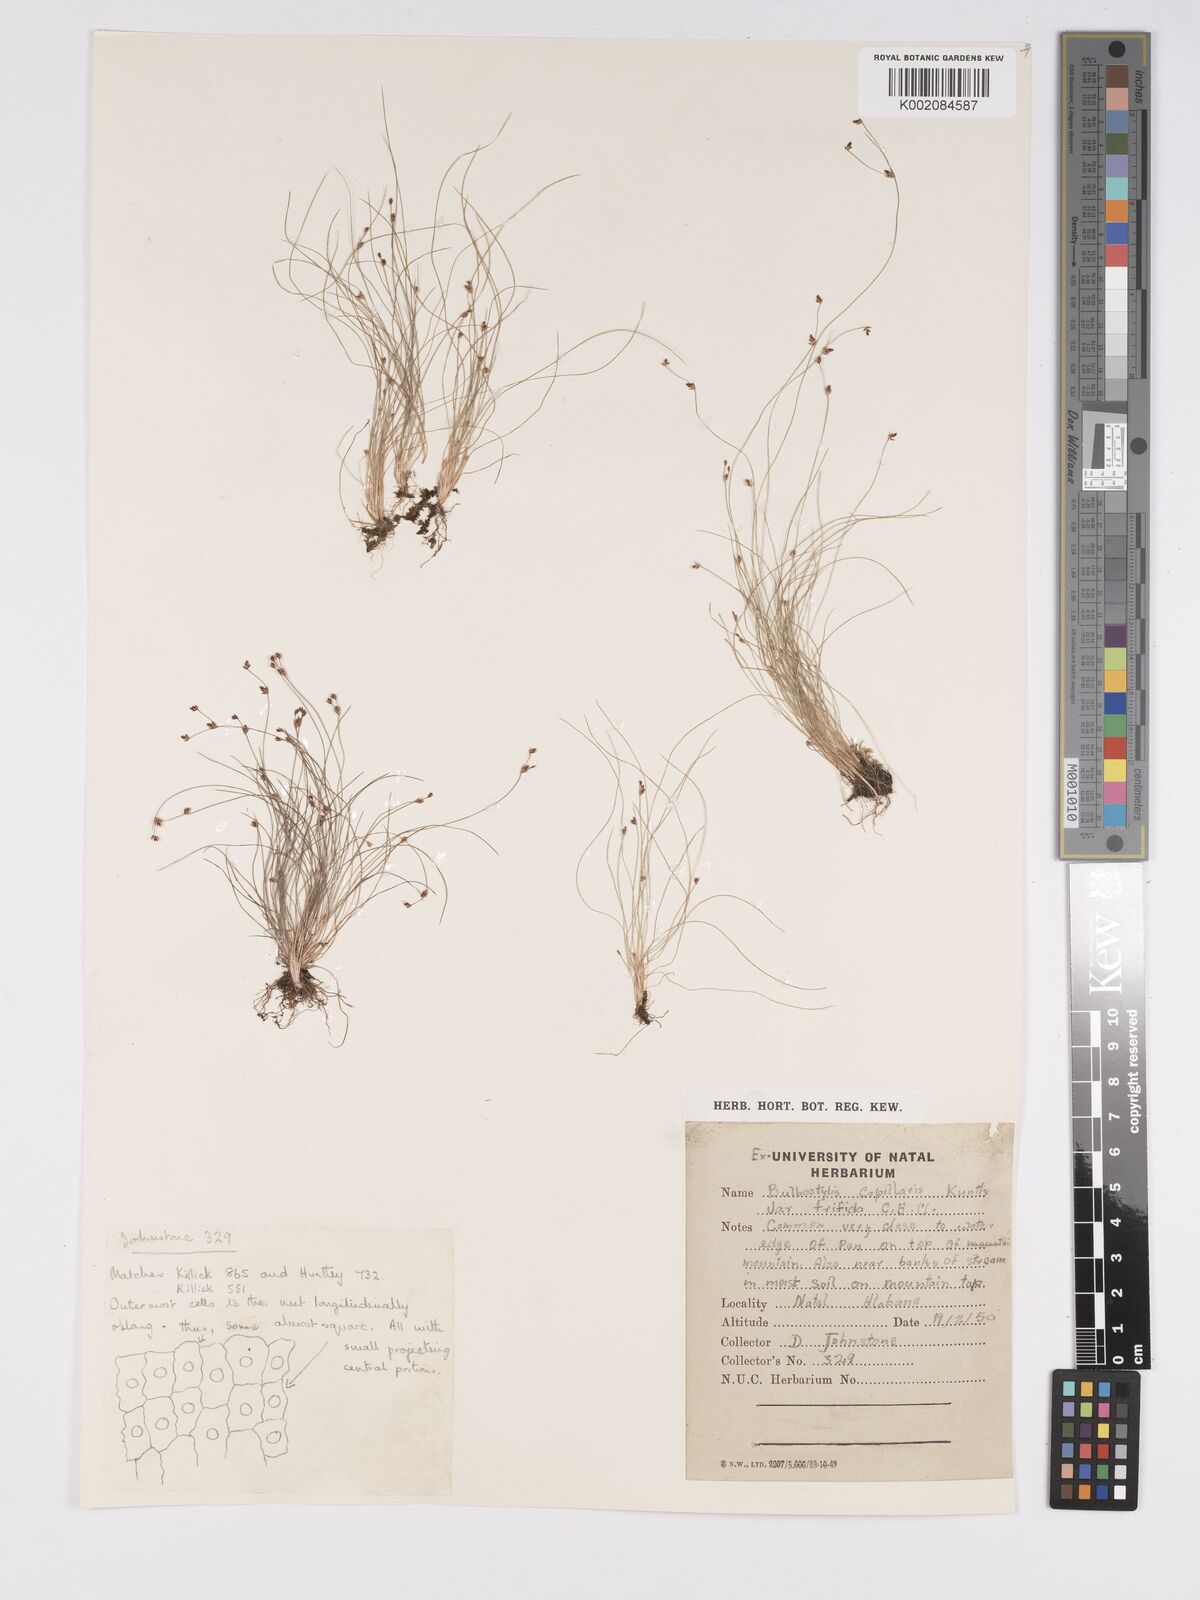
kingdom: Plantae
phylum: Tracheophyta
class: Liliopsida
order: Poales
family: Cyperaceae
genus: Bulbostylis
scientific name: Bulbostylis capillaris
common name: Densetuft hairsedge
